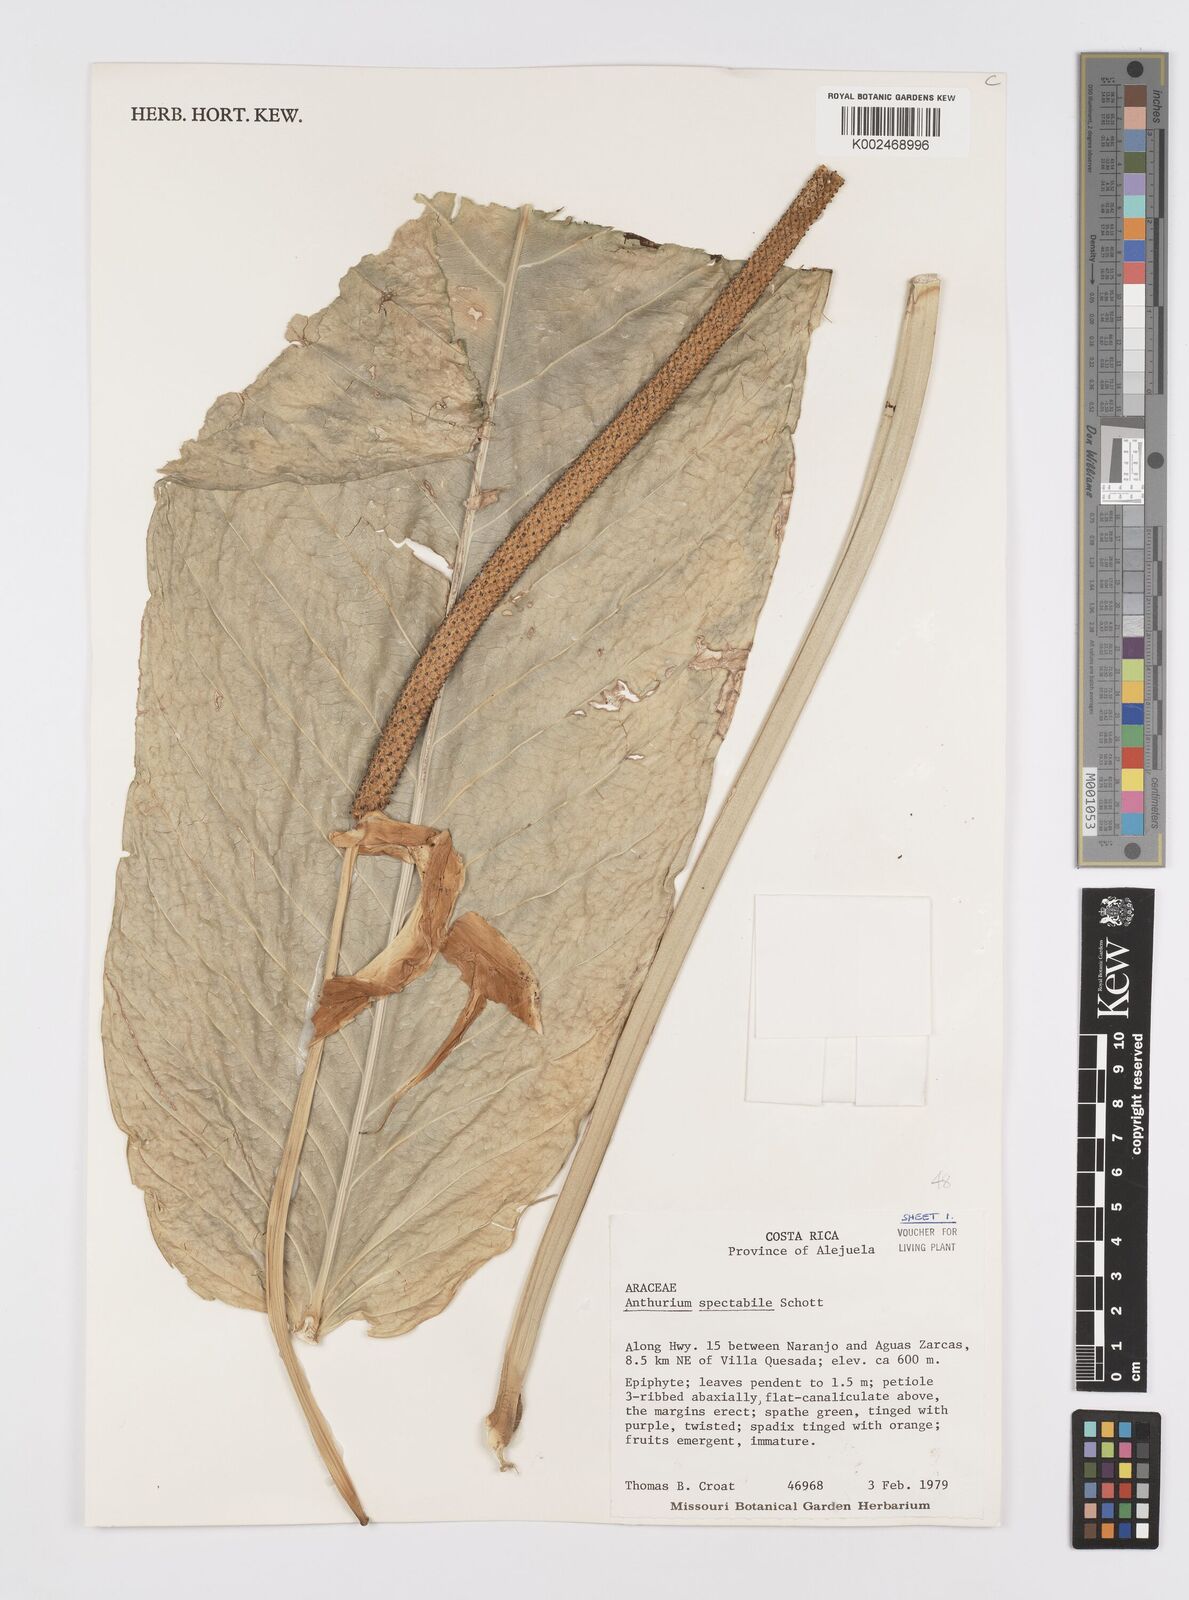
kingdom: Plantae
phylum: Tracheophyta
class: Liliopsida
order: Alismatales
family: Araceae
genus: Anthurium
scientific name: Anthurium spectabile
